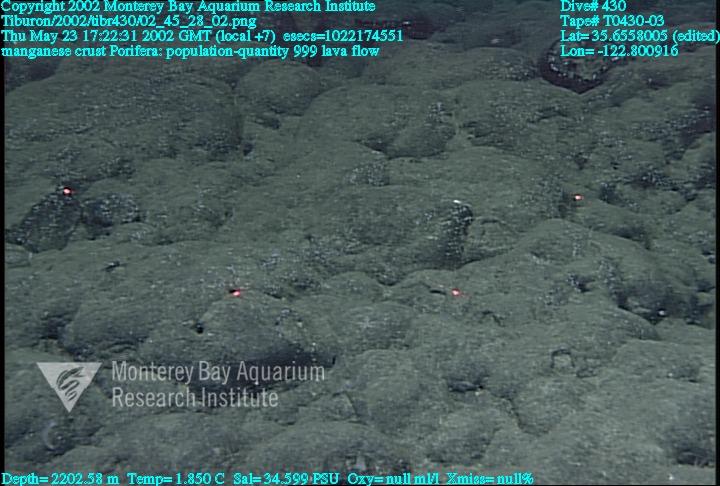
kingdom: Animalia
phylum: Porifera
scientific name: Porifera
